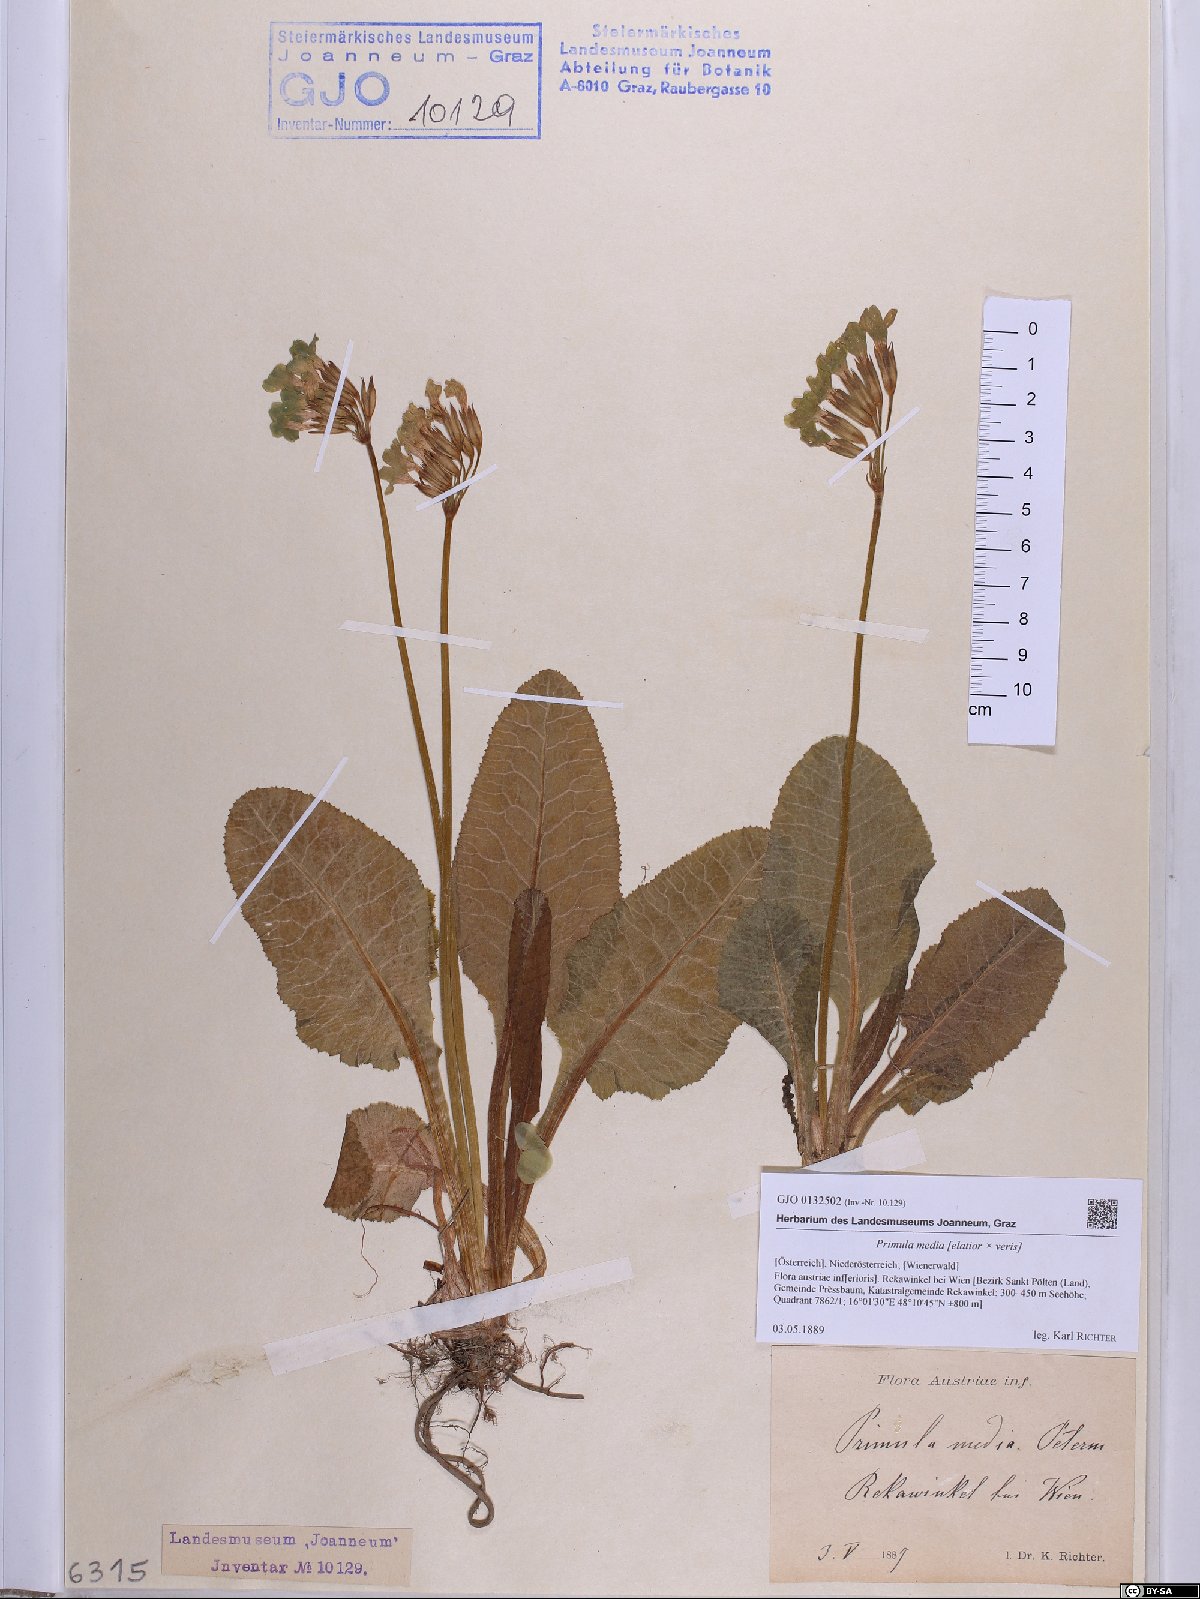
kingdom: Plantae
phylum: Tracheophyta
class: Magnoliopsida
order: Ericales
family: Primulaceae
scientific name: Primulaceae
